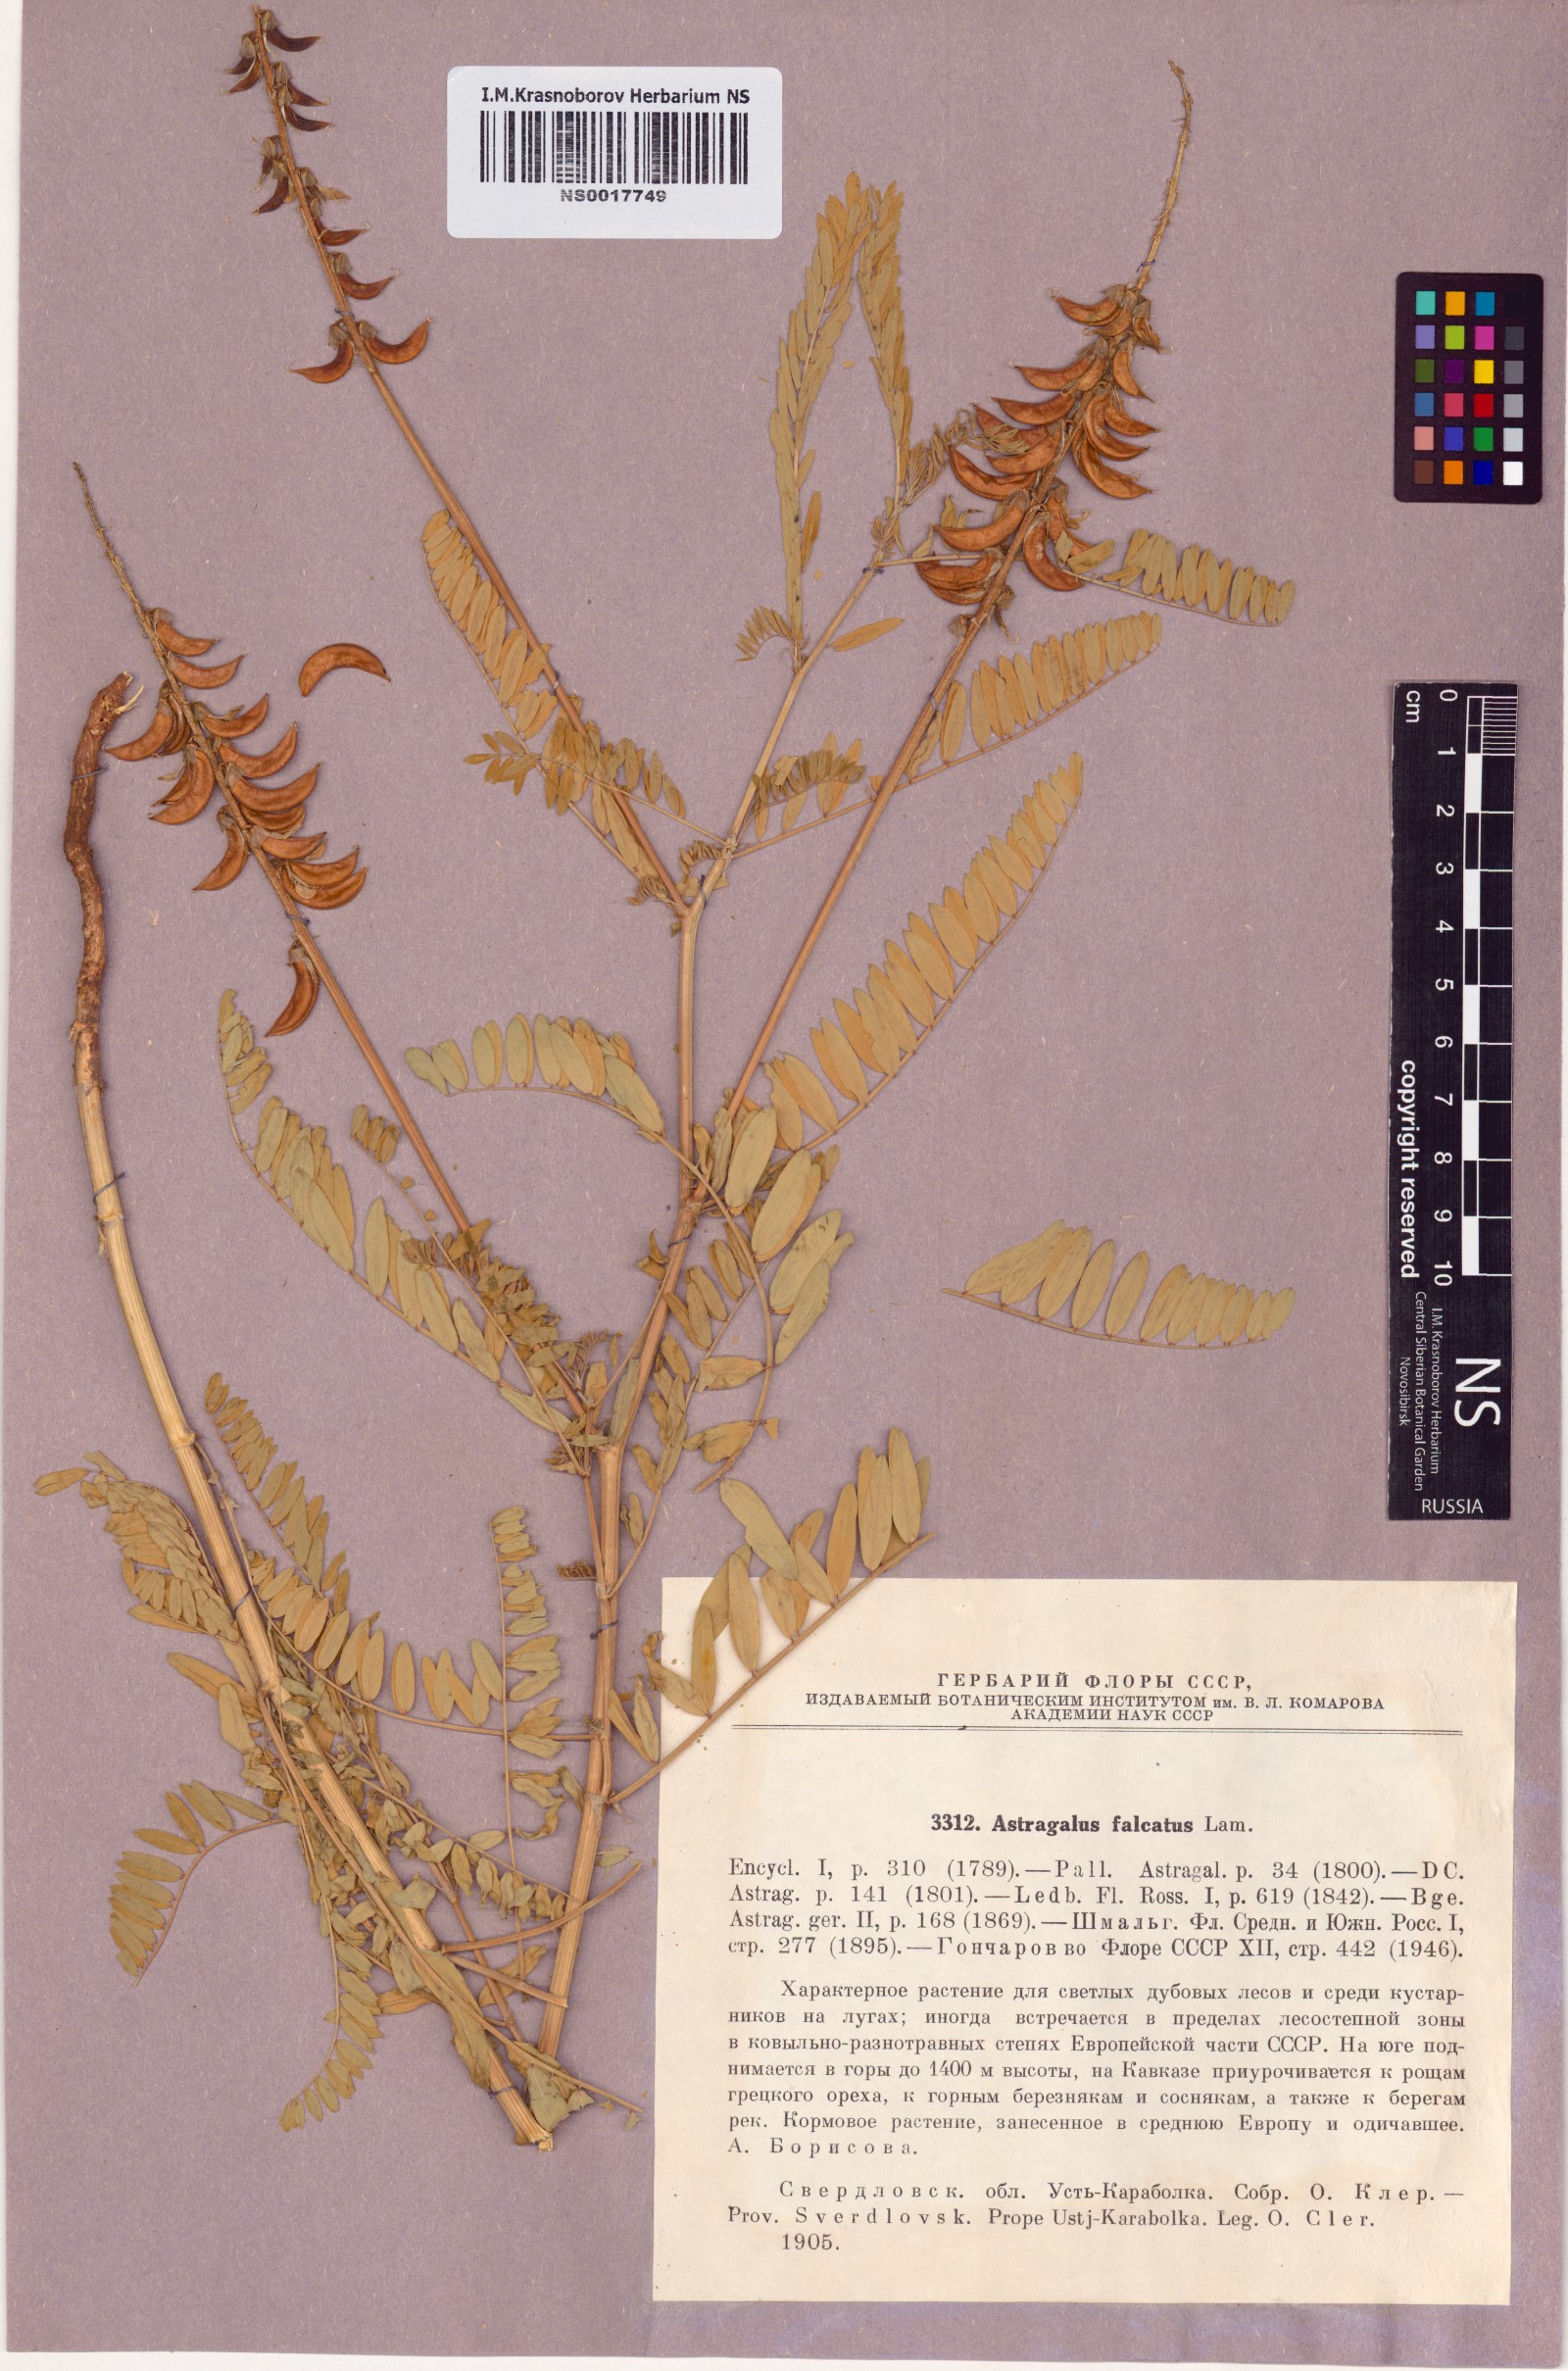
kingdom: Plantae
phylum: Tracheophyta
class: Magnoliopsida
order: Fabales
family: Fabaceae
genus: Astragalus
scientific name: Astragalus falcatus
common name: Russian sickle milk-vetch
